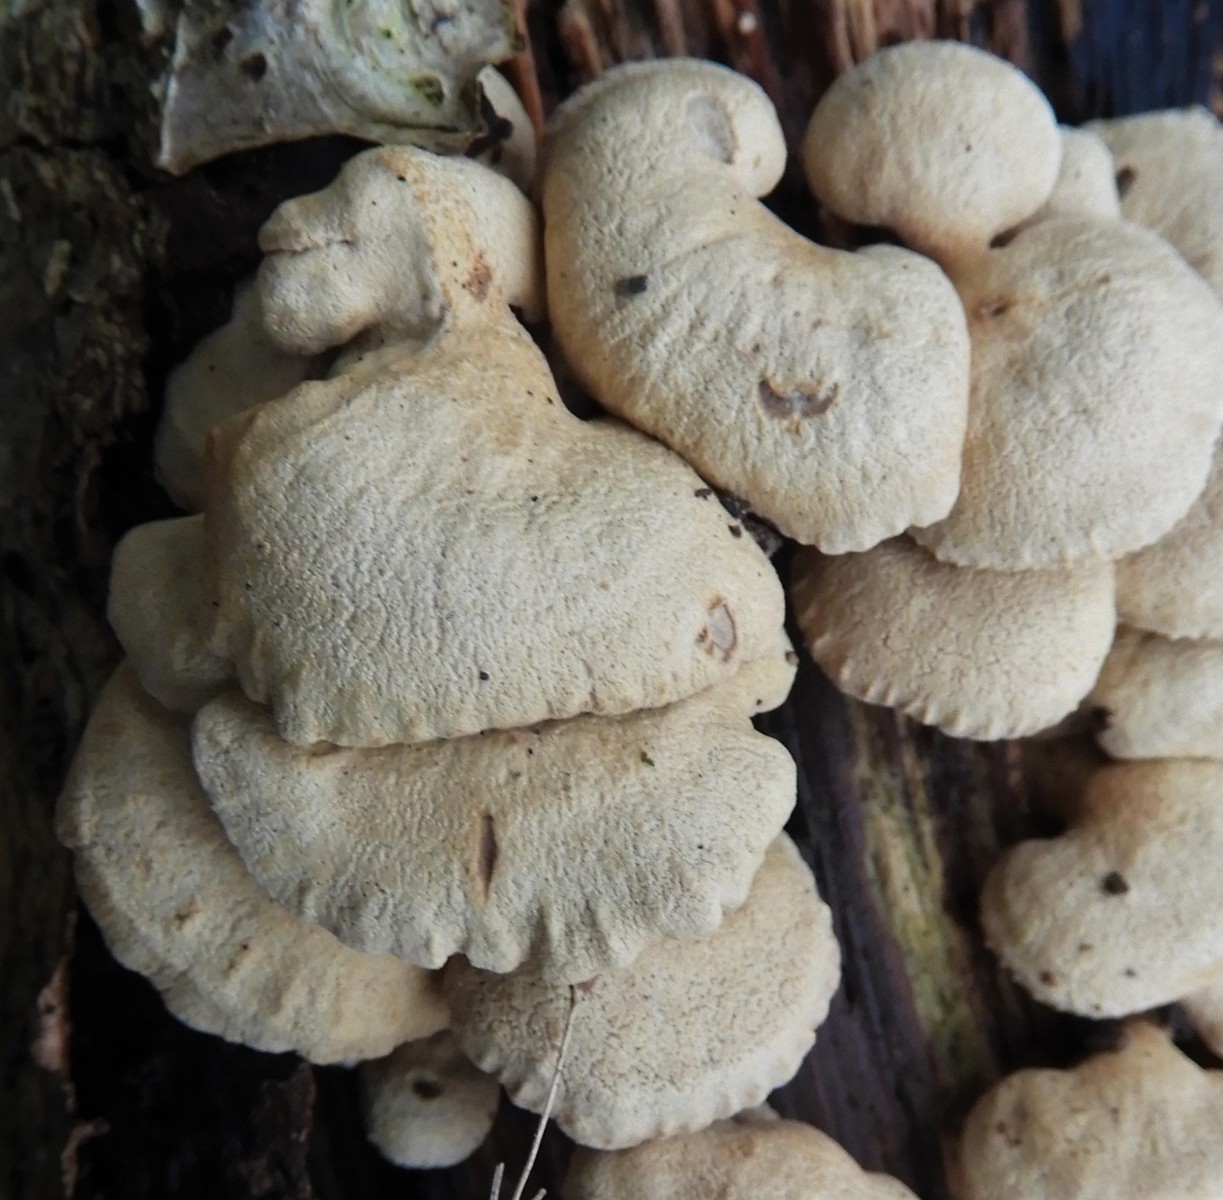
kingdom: Fungi
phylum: Basidiomycota
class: Agaricomycetes
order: Agaricales
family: Mycenaceae
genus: Panellus
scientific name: Panellus stipticus
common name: kliddet epaulethat
